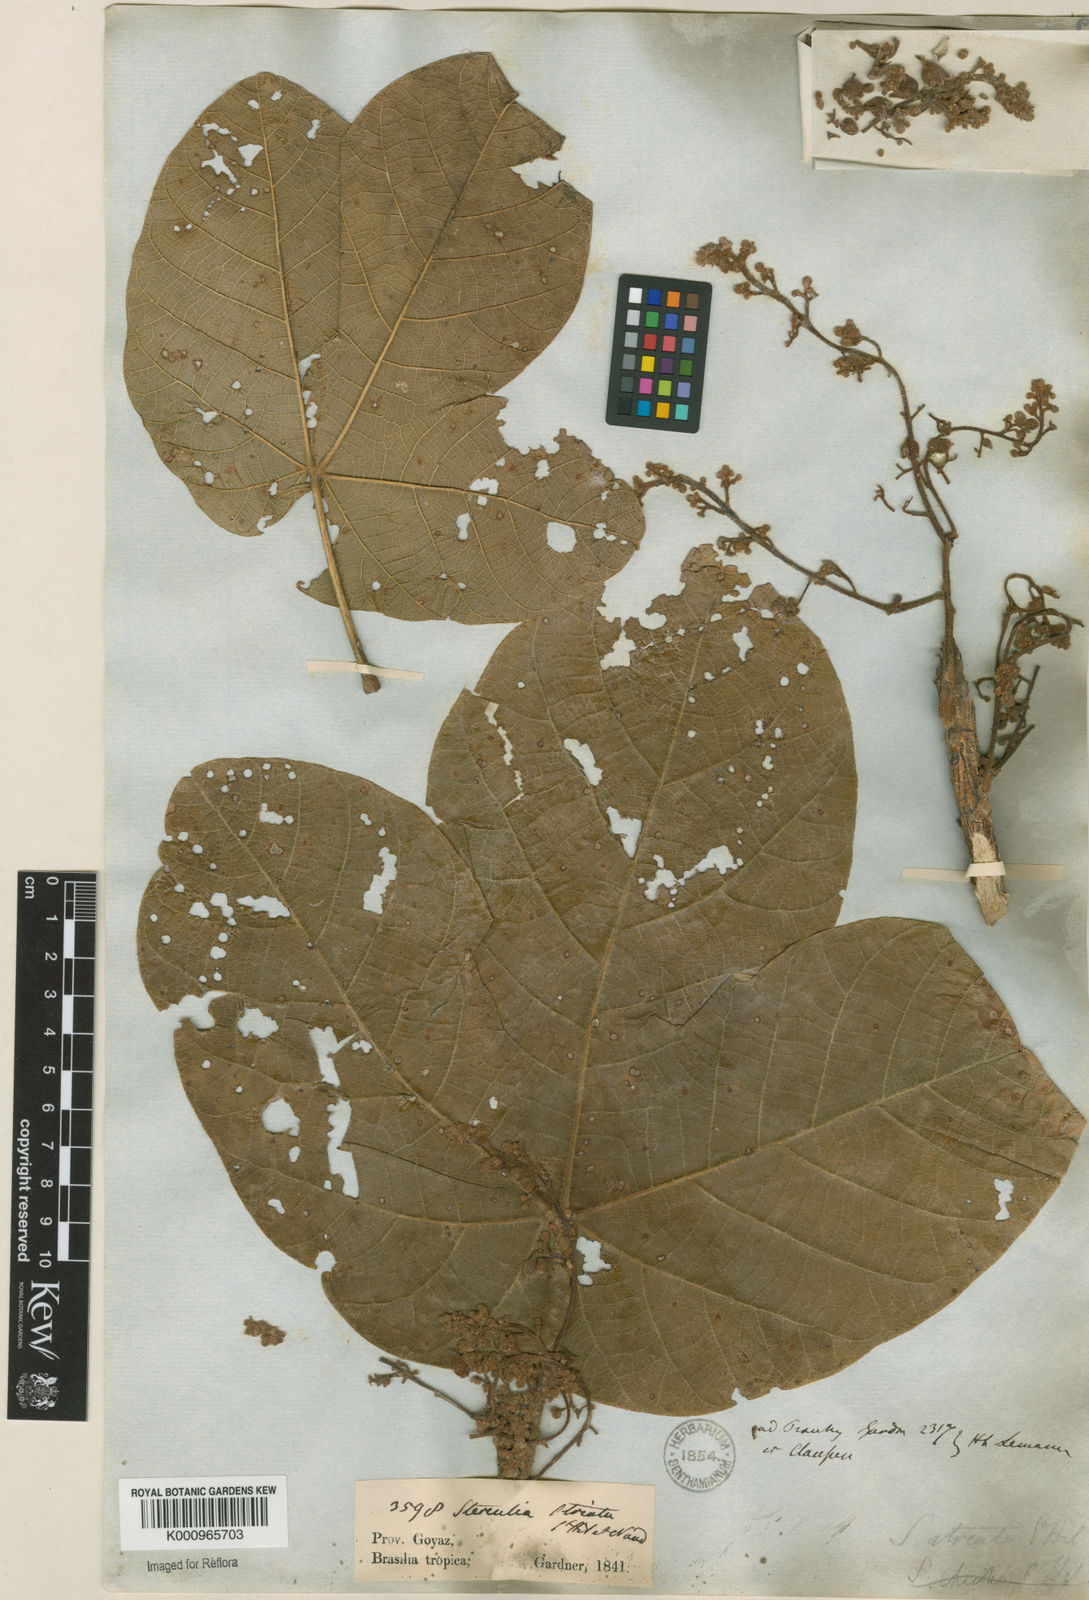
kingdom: Plantae
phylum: Tracheophyta
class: Magnoliopsida
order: Malvales
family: Malvaceae
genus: Sterculia
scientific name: Sterculia striata
